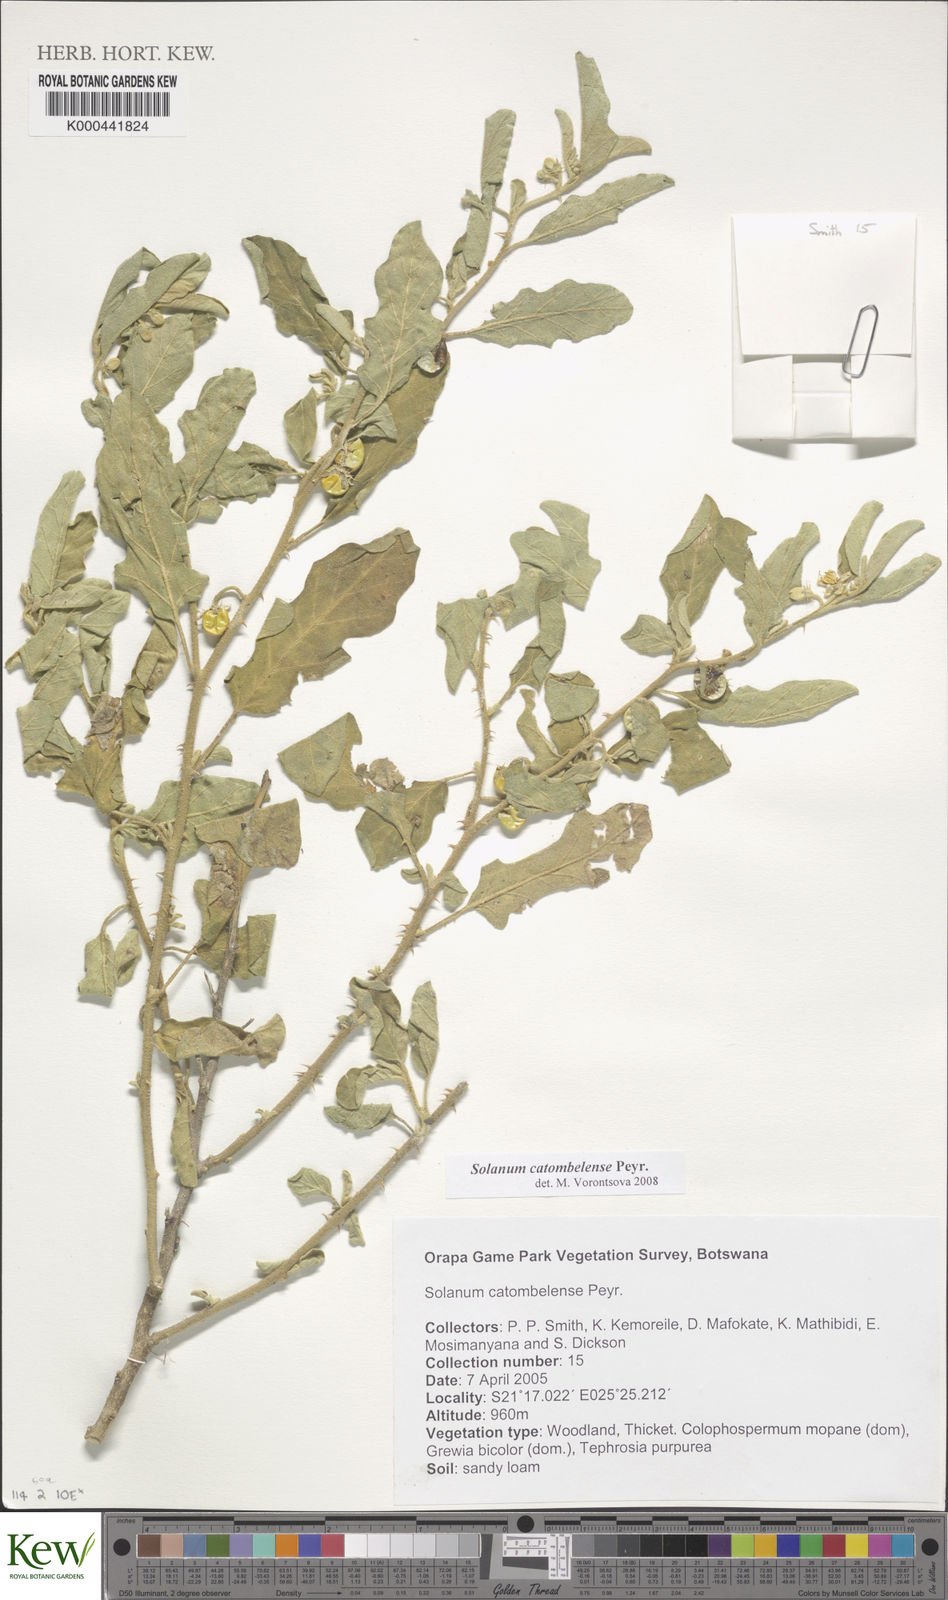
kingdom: Plantae
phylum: Tracheophyta
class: Magnoliopsida
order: Solanales
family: Solanaceae
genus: Solanum
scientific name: Solanum catombelense
